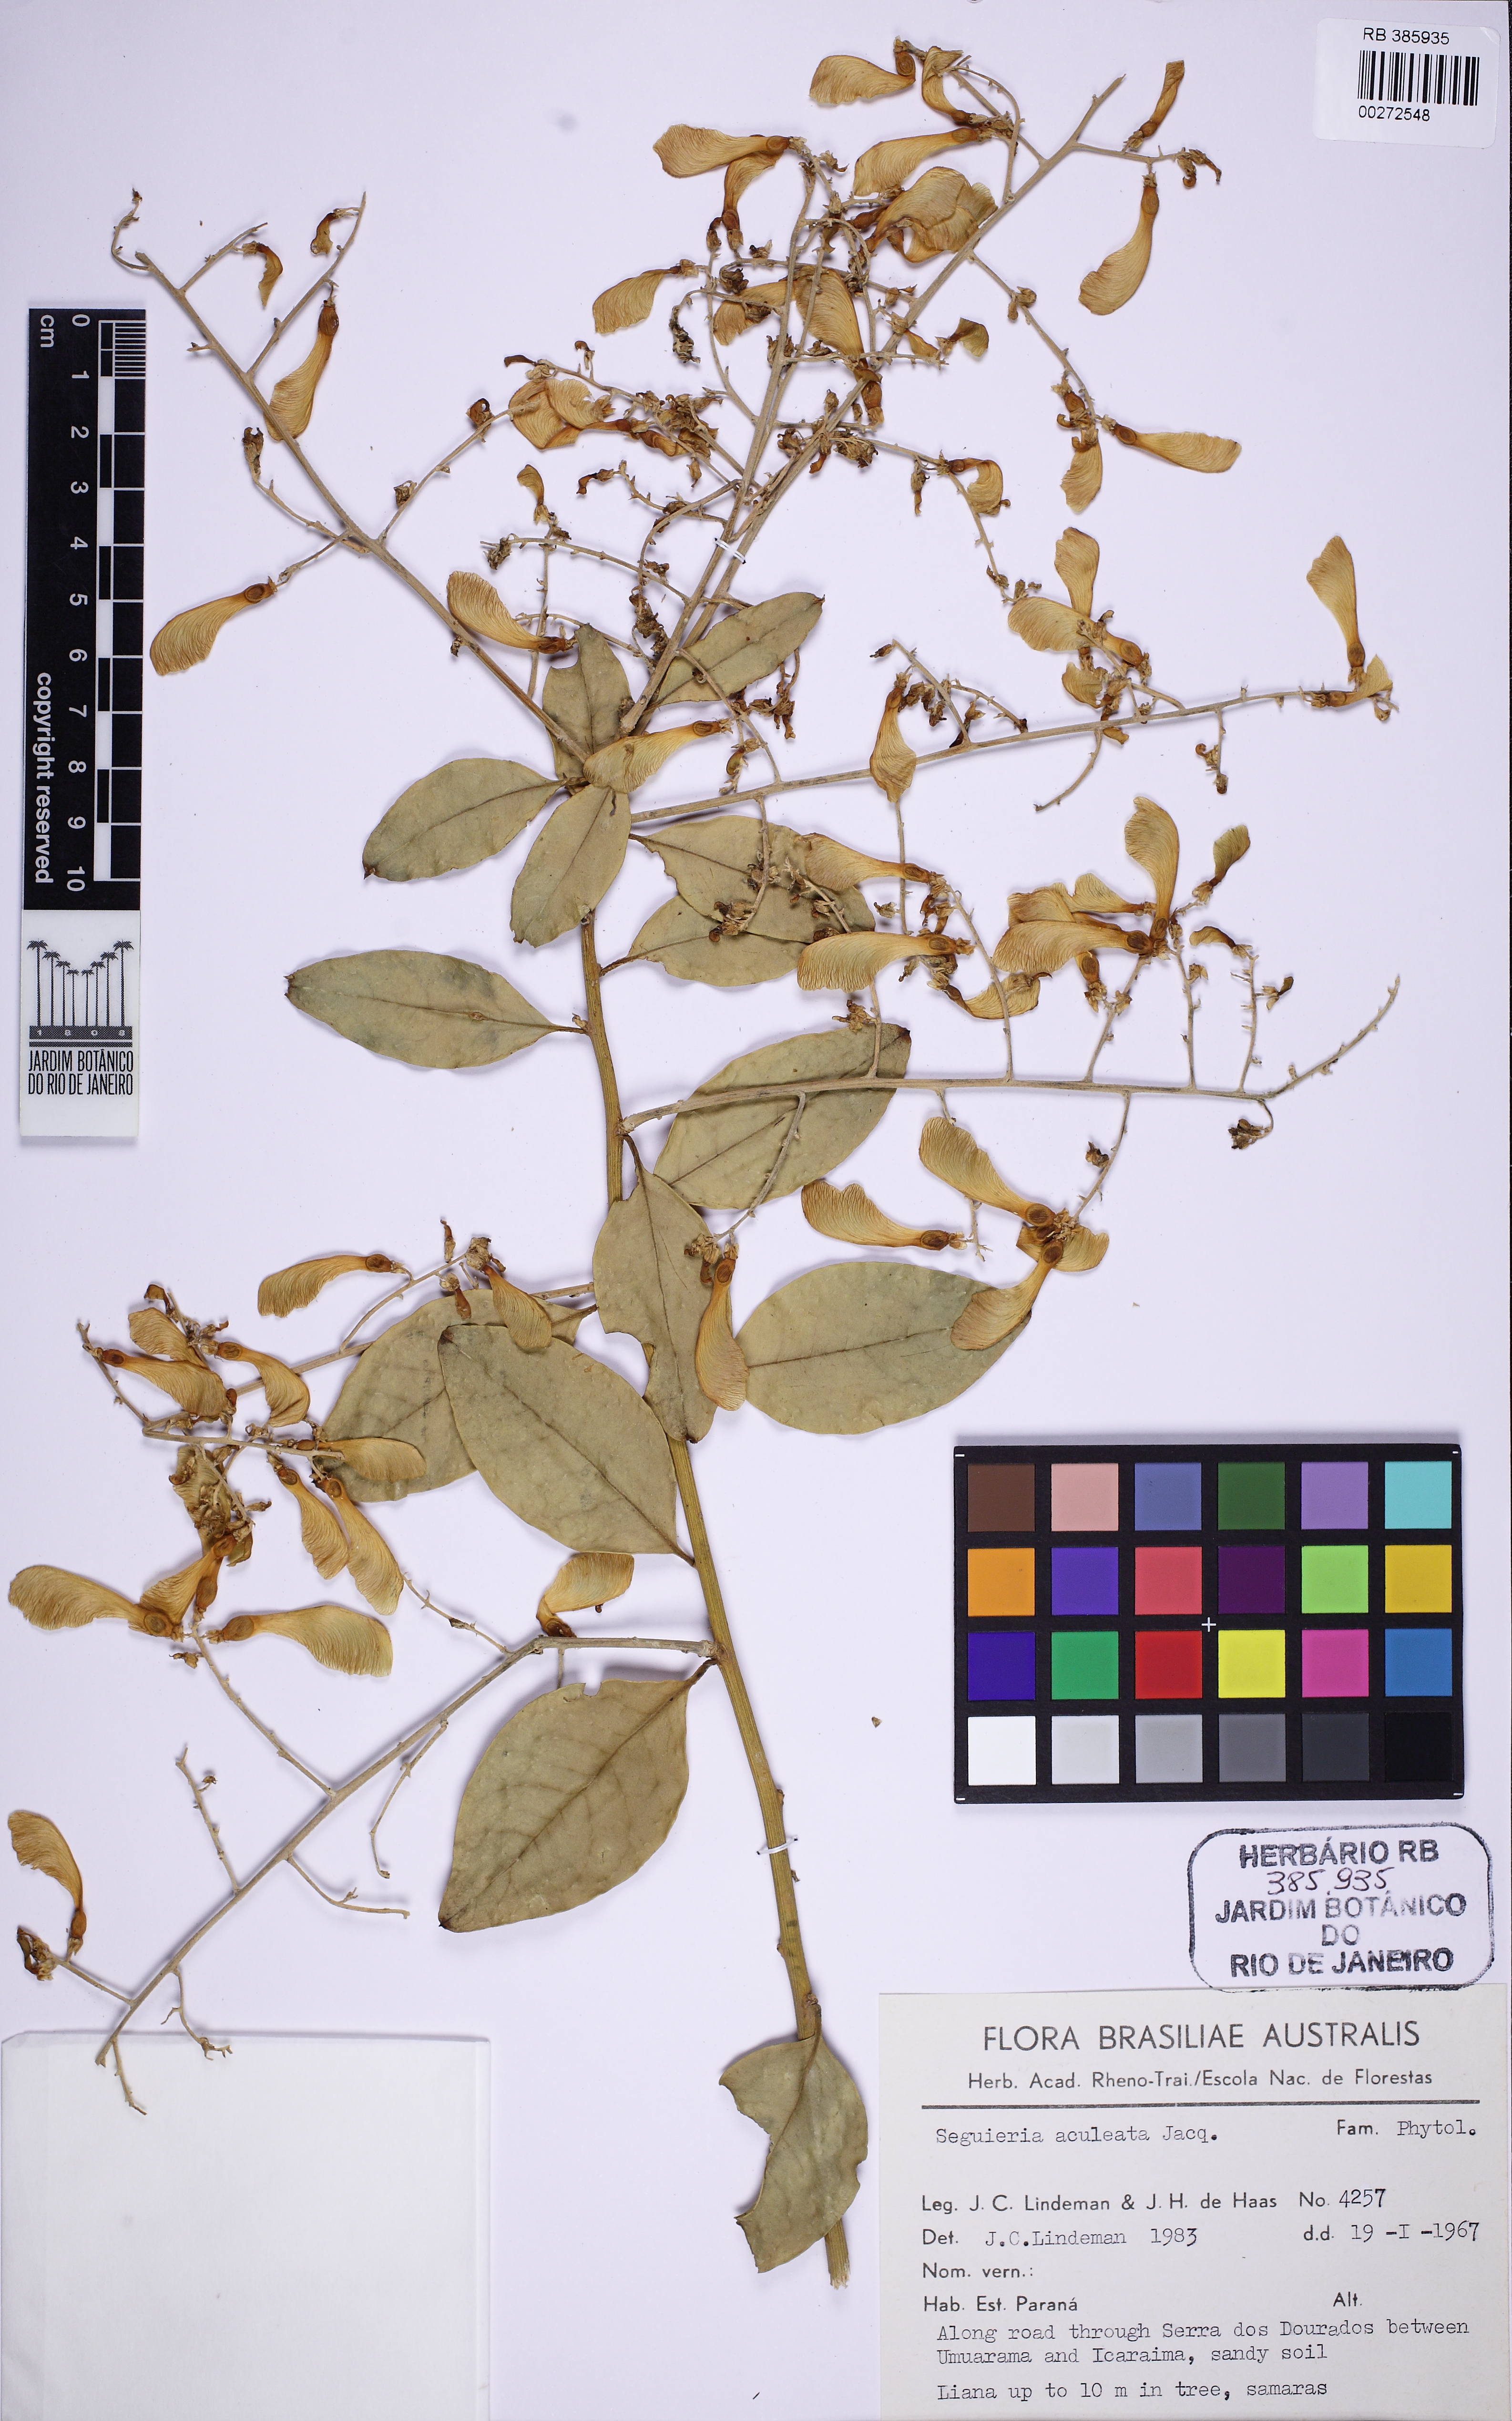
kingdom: Plantae
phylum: Tracheophyta
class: Magnoliopsida
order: Caryophyllales
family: Phytolaccaceae
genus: Seguieria
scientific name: Seguieria aculeata
